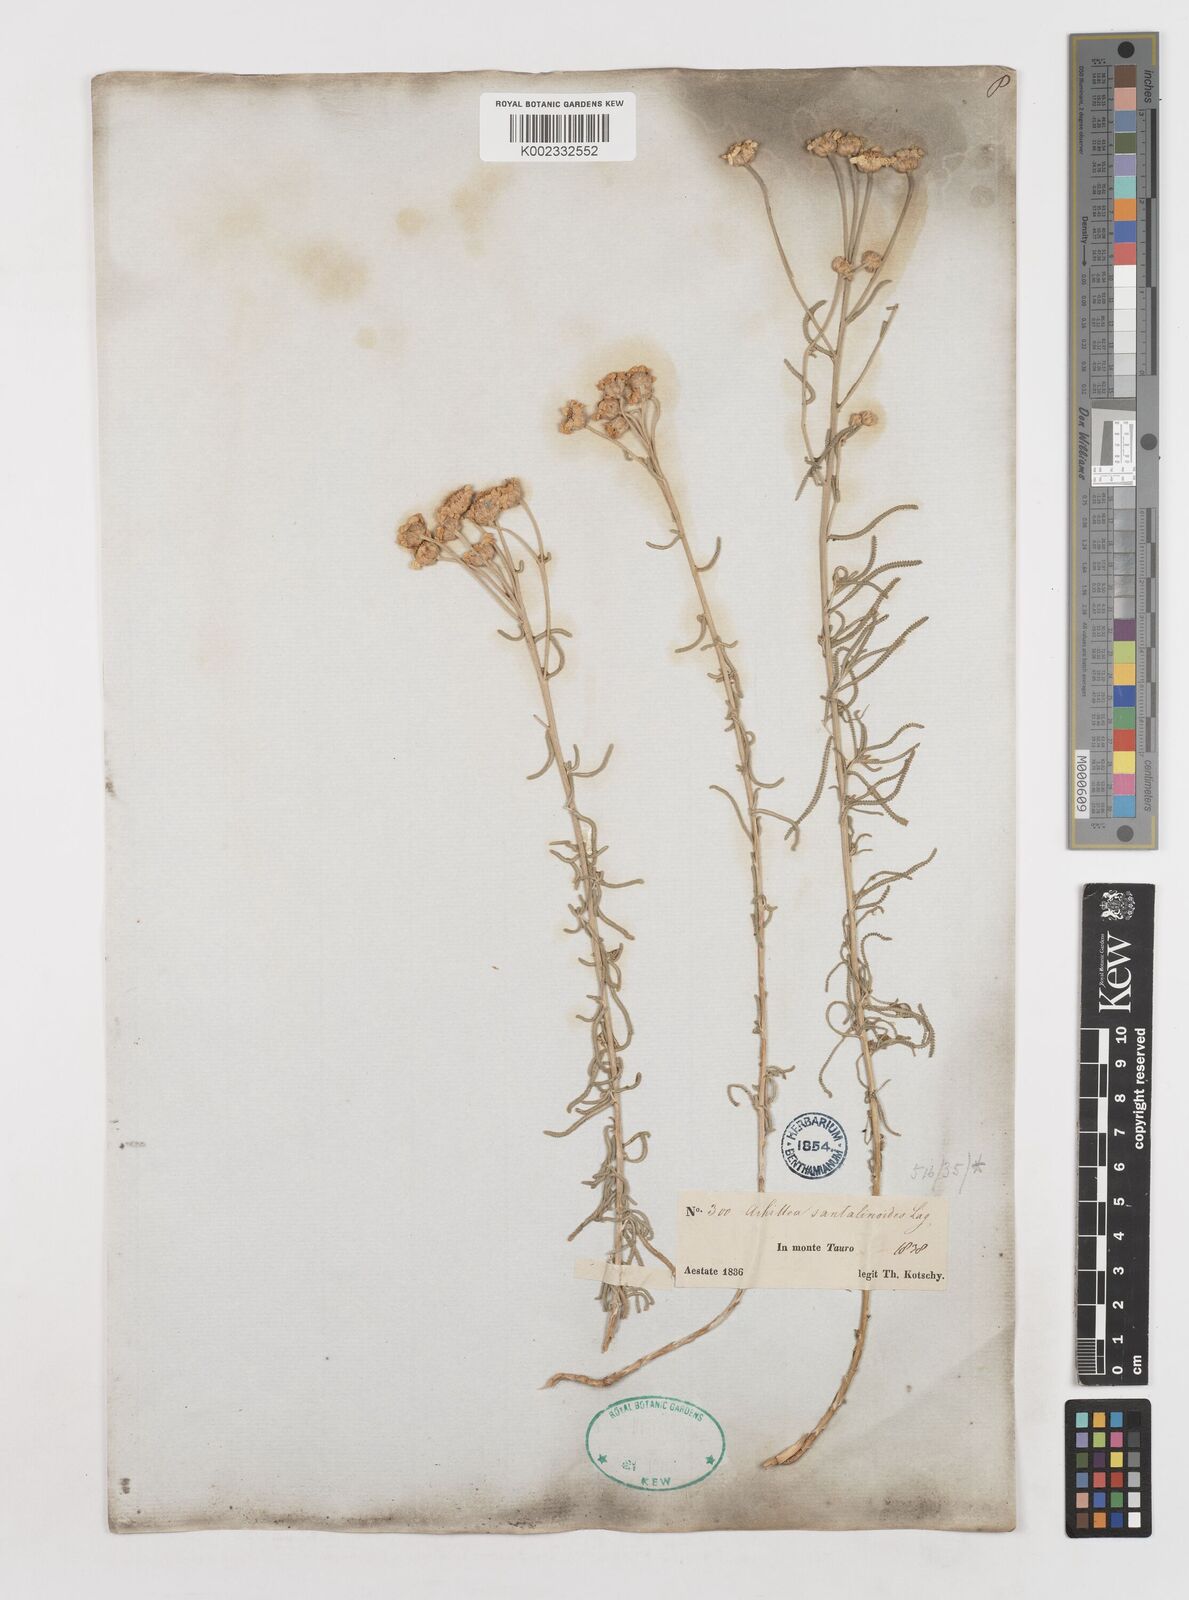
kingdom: Plantae
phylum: Tracheophyta
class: Magnoliopsida
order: Asterales
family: Asteraceae
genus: Achillea
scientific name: Achillea spinulifolia
